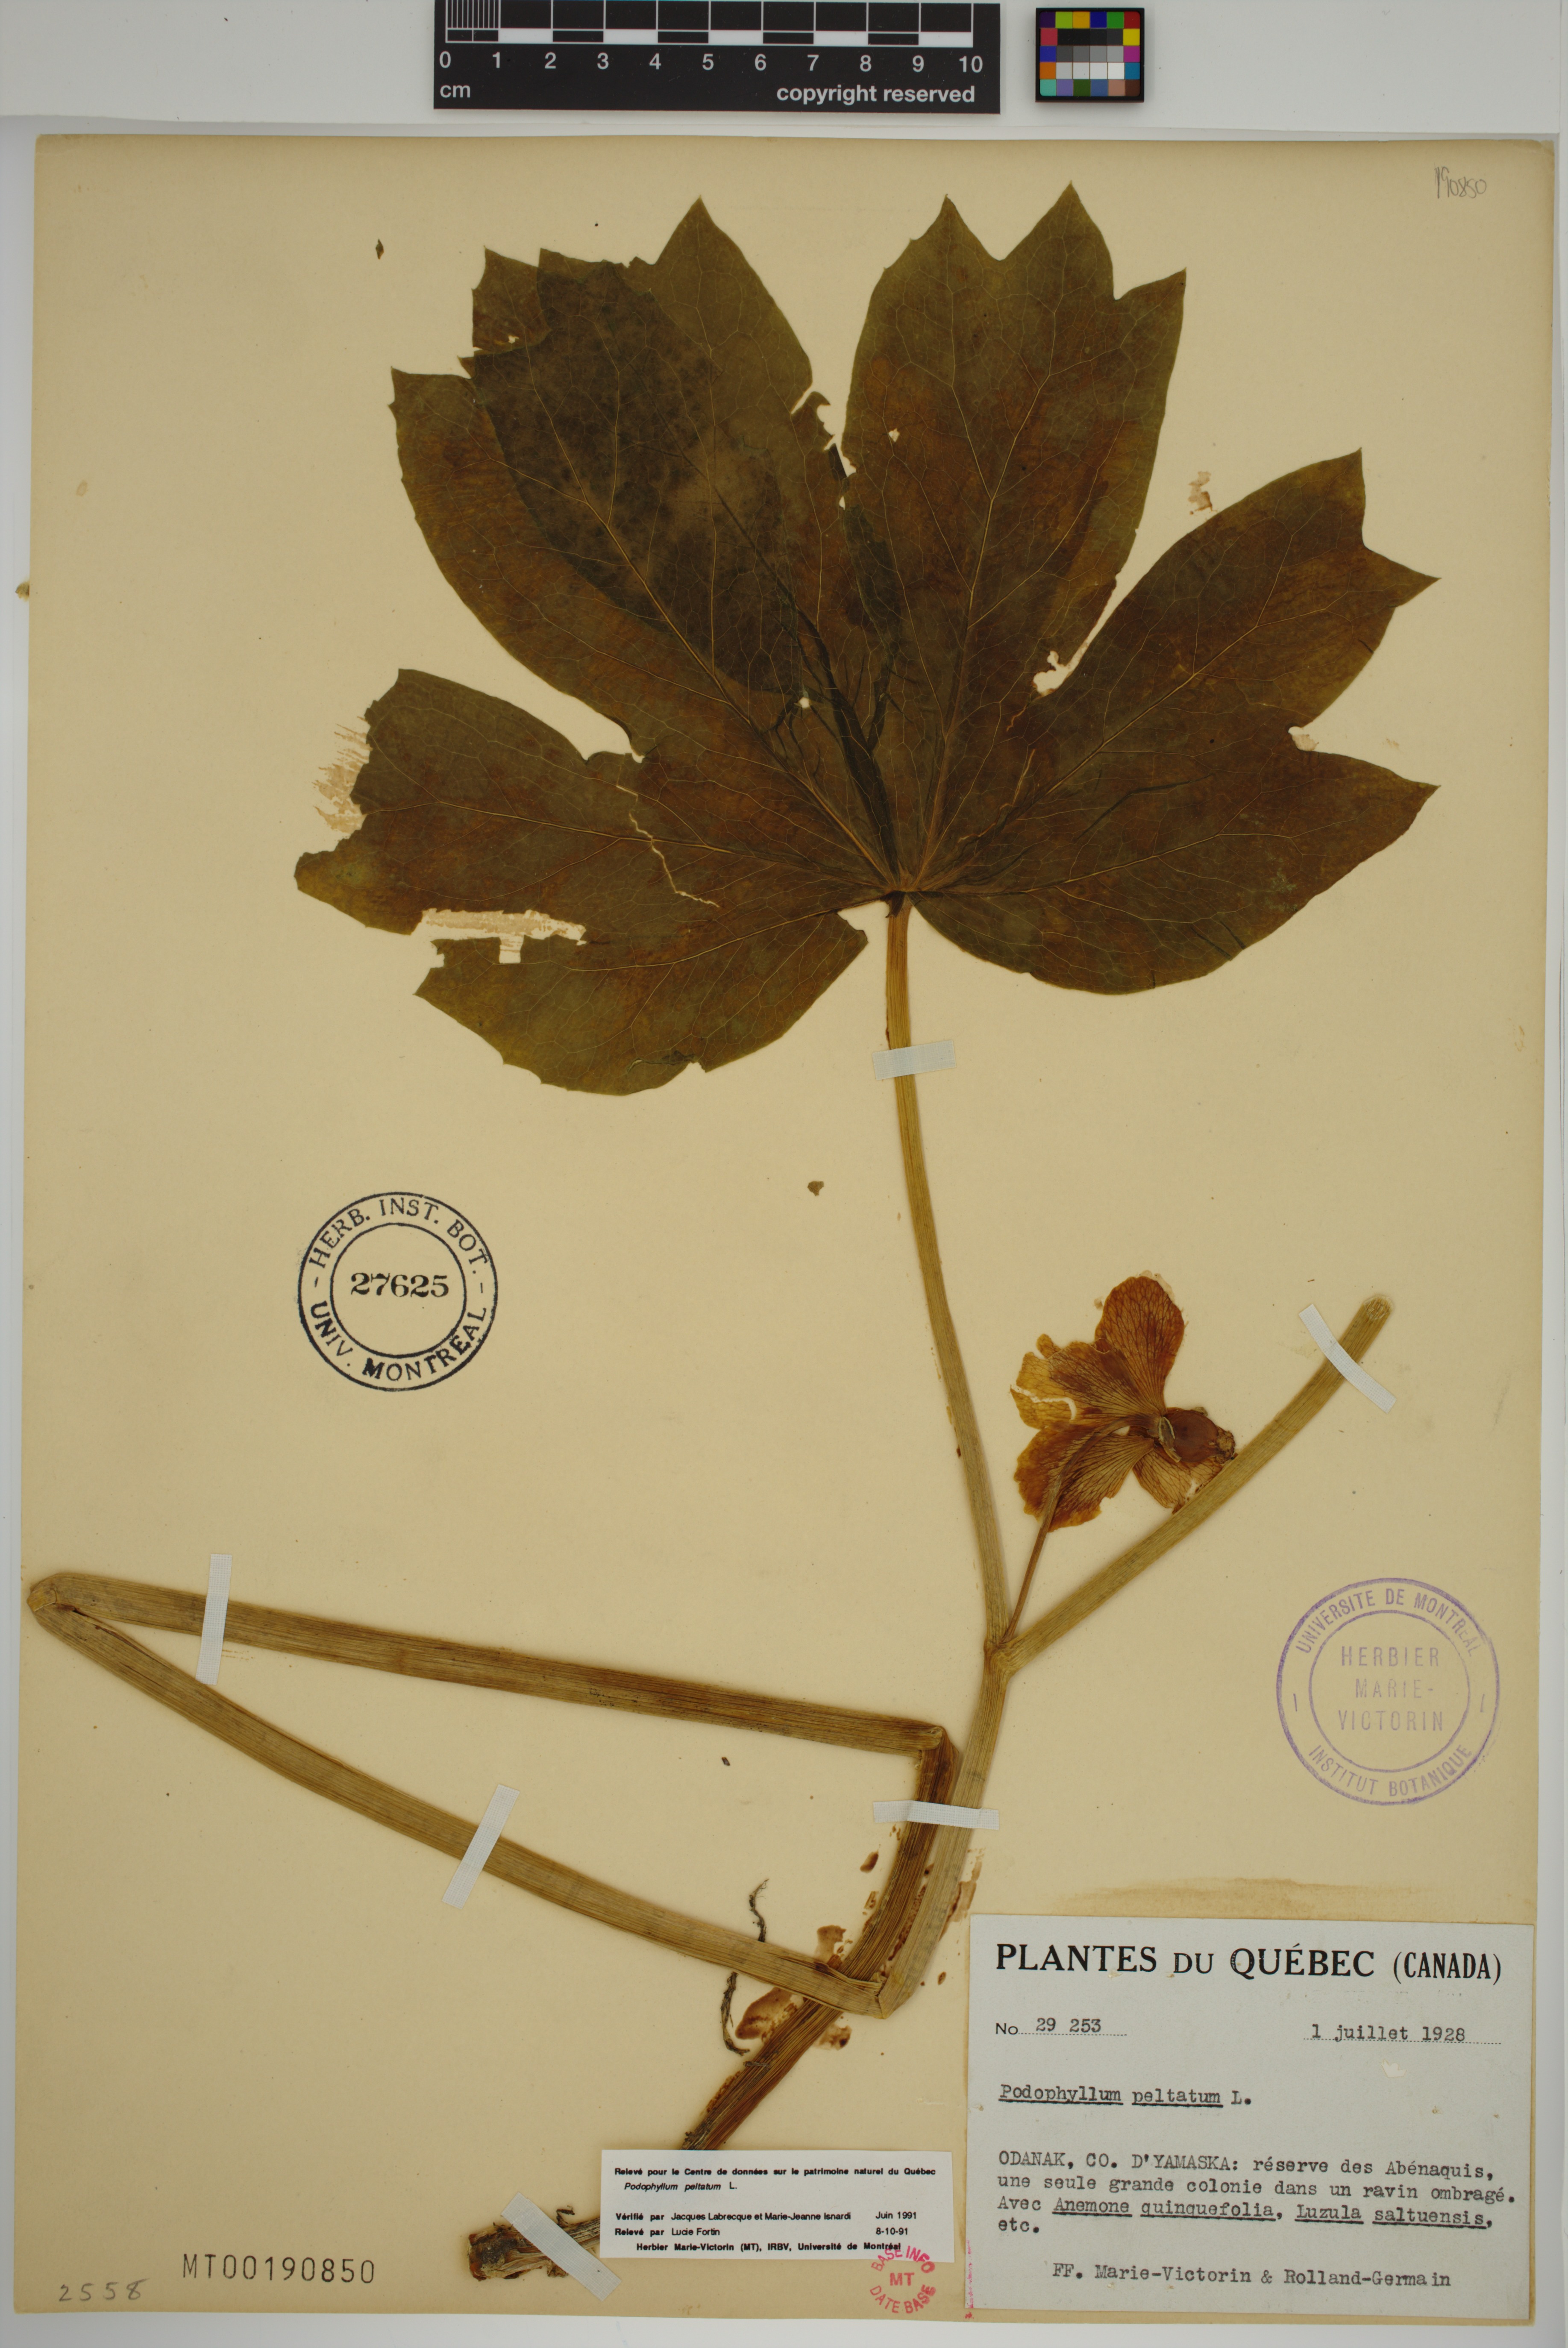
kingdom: Plantae
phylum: Tracheophyta
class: Magnoliopsida
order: Ranunculales
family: Berberidaceae
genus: Podophyllum
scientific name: Podophyllum peltatum
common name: Wild mandrake
